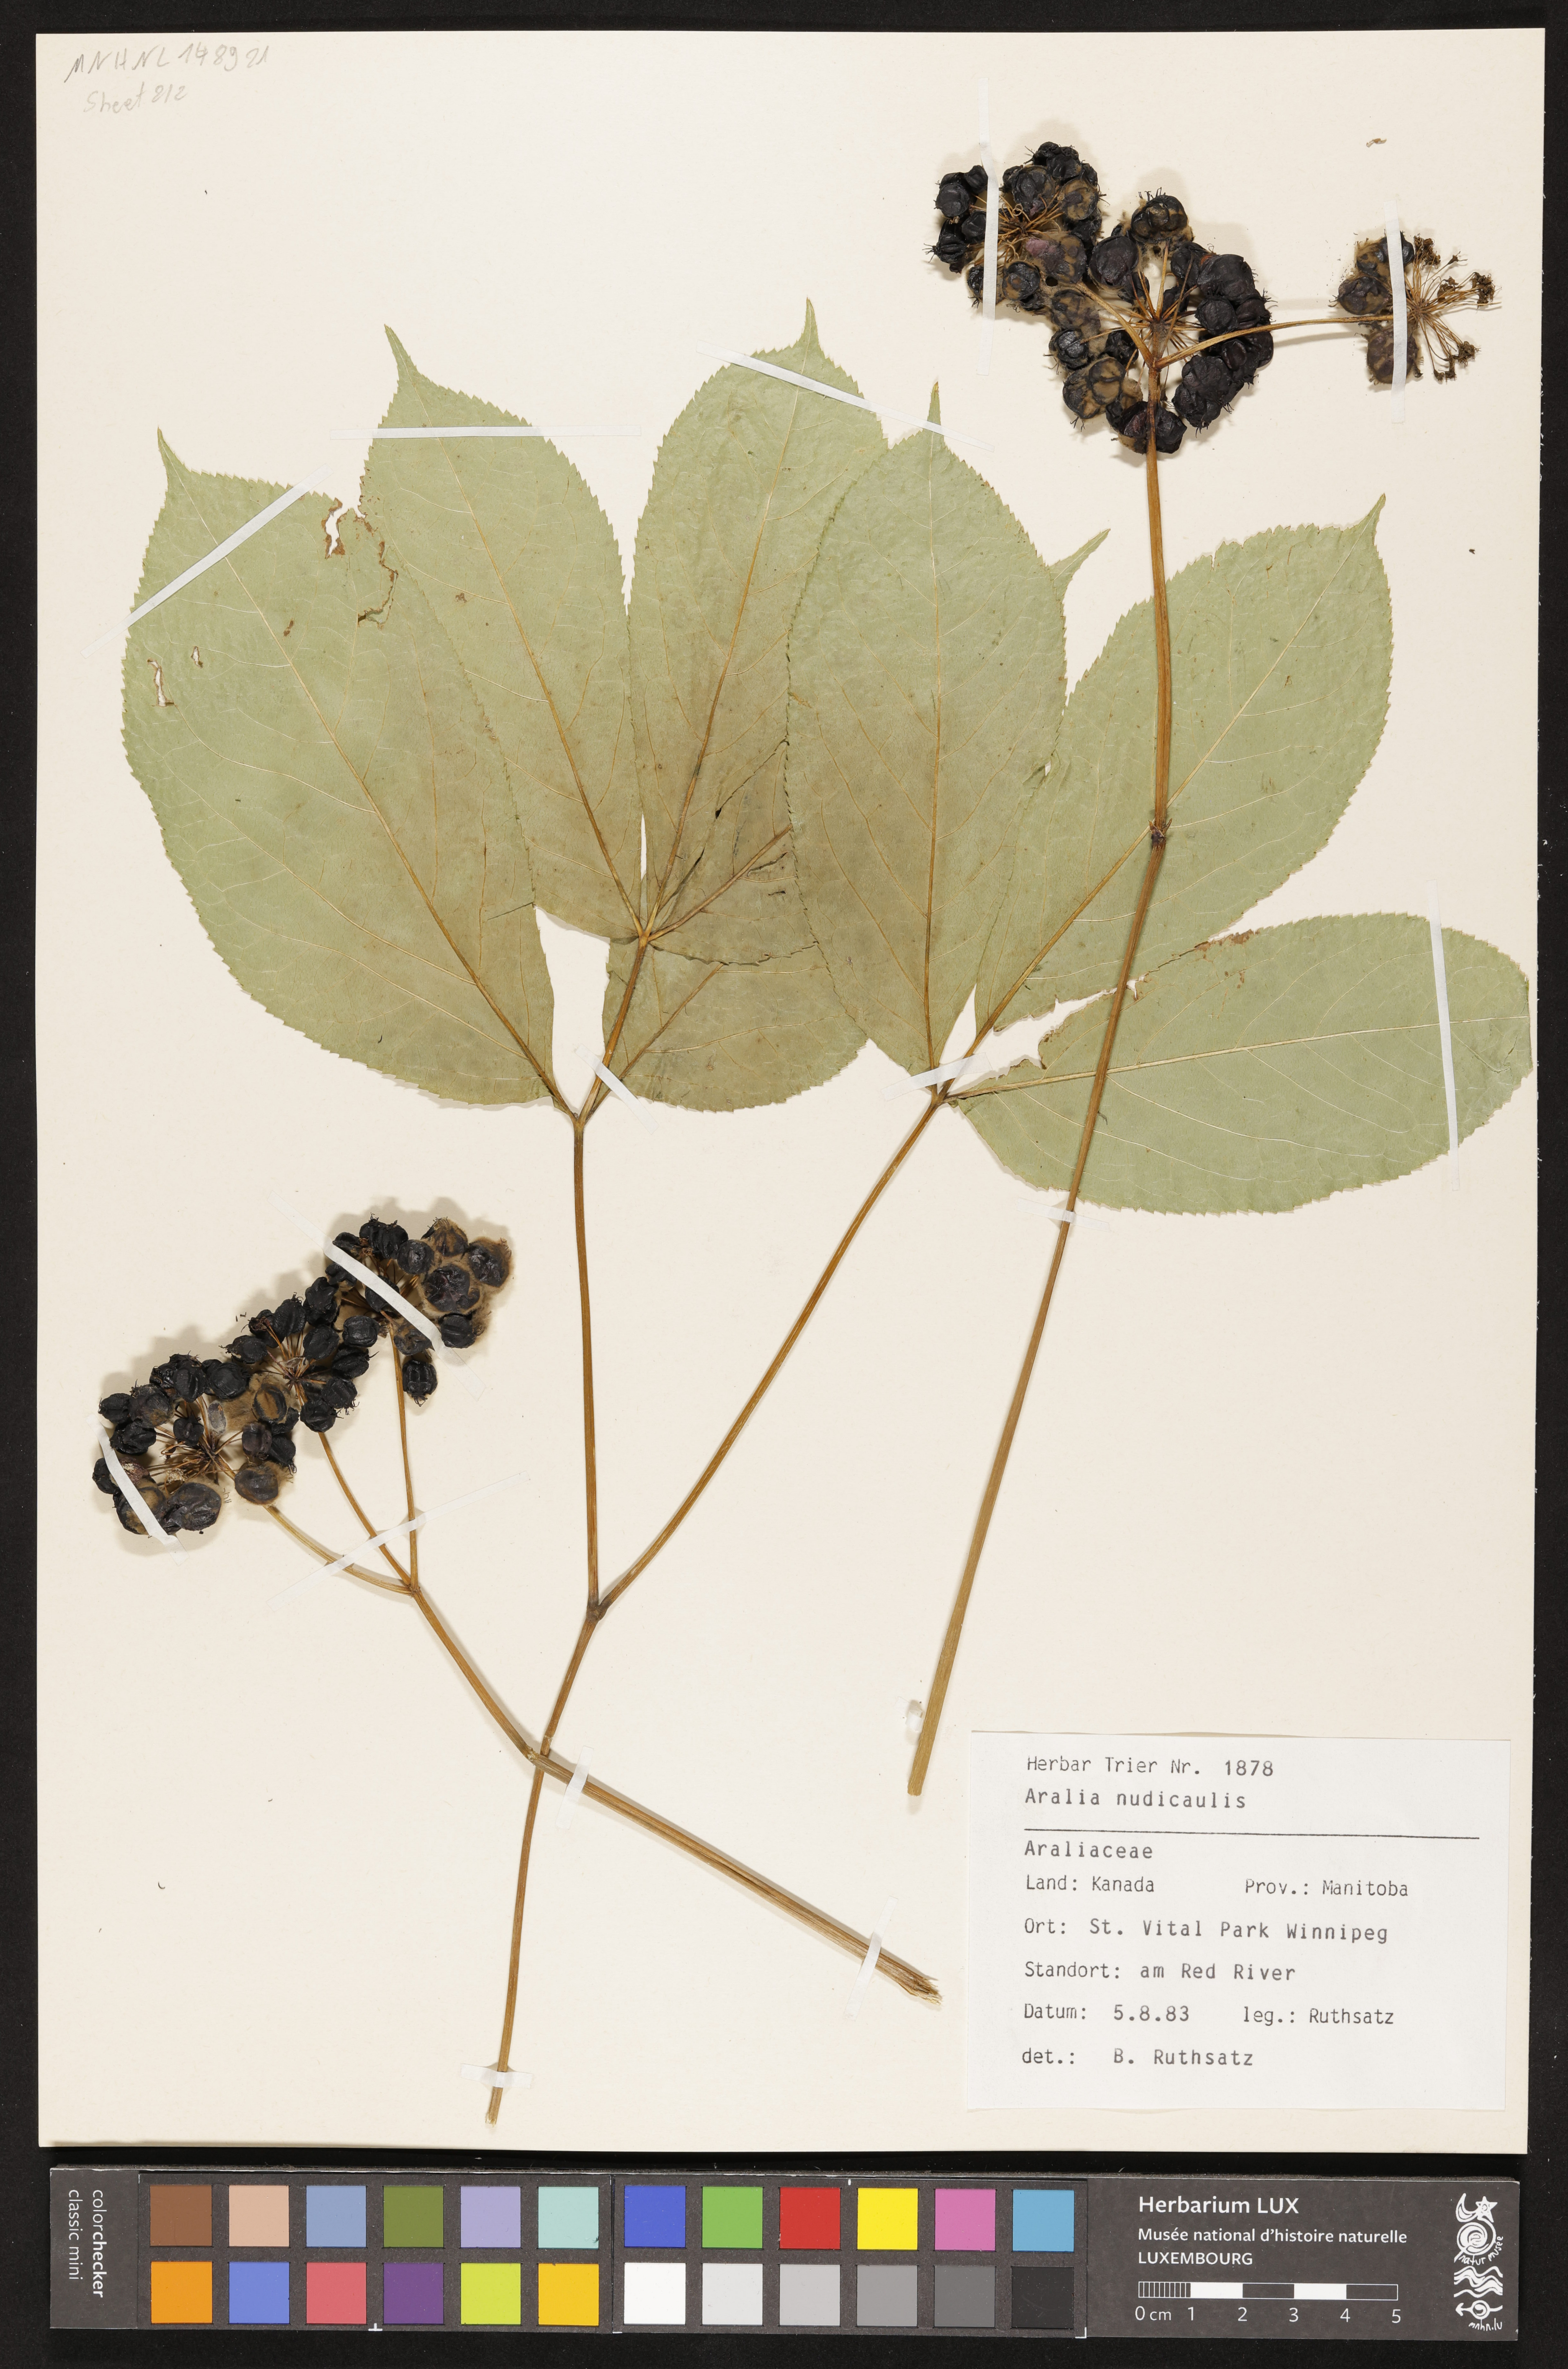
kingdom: Plantae
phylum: Tracheophyta
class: Magnoliopsida
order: Apiales
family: Araliaceae
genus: Aralia
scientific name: Aralia nudicaulis
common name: Wild sarsaparilla
